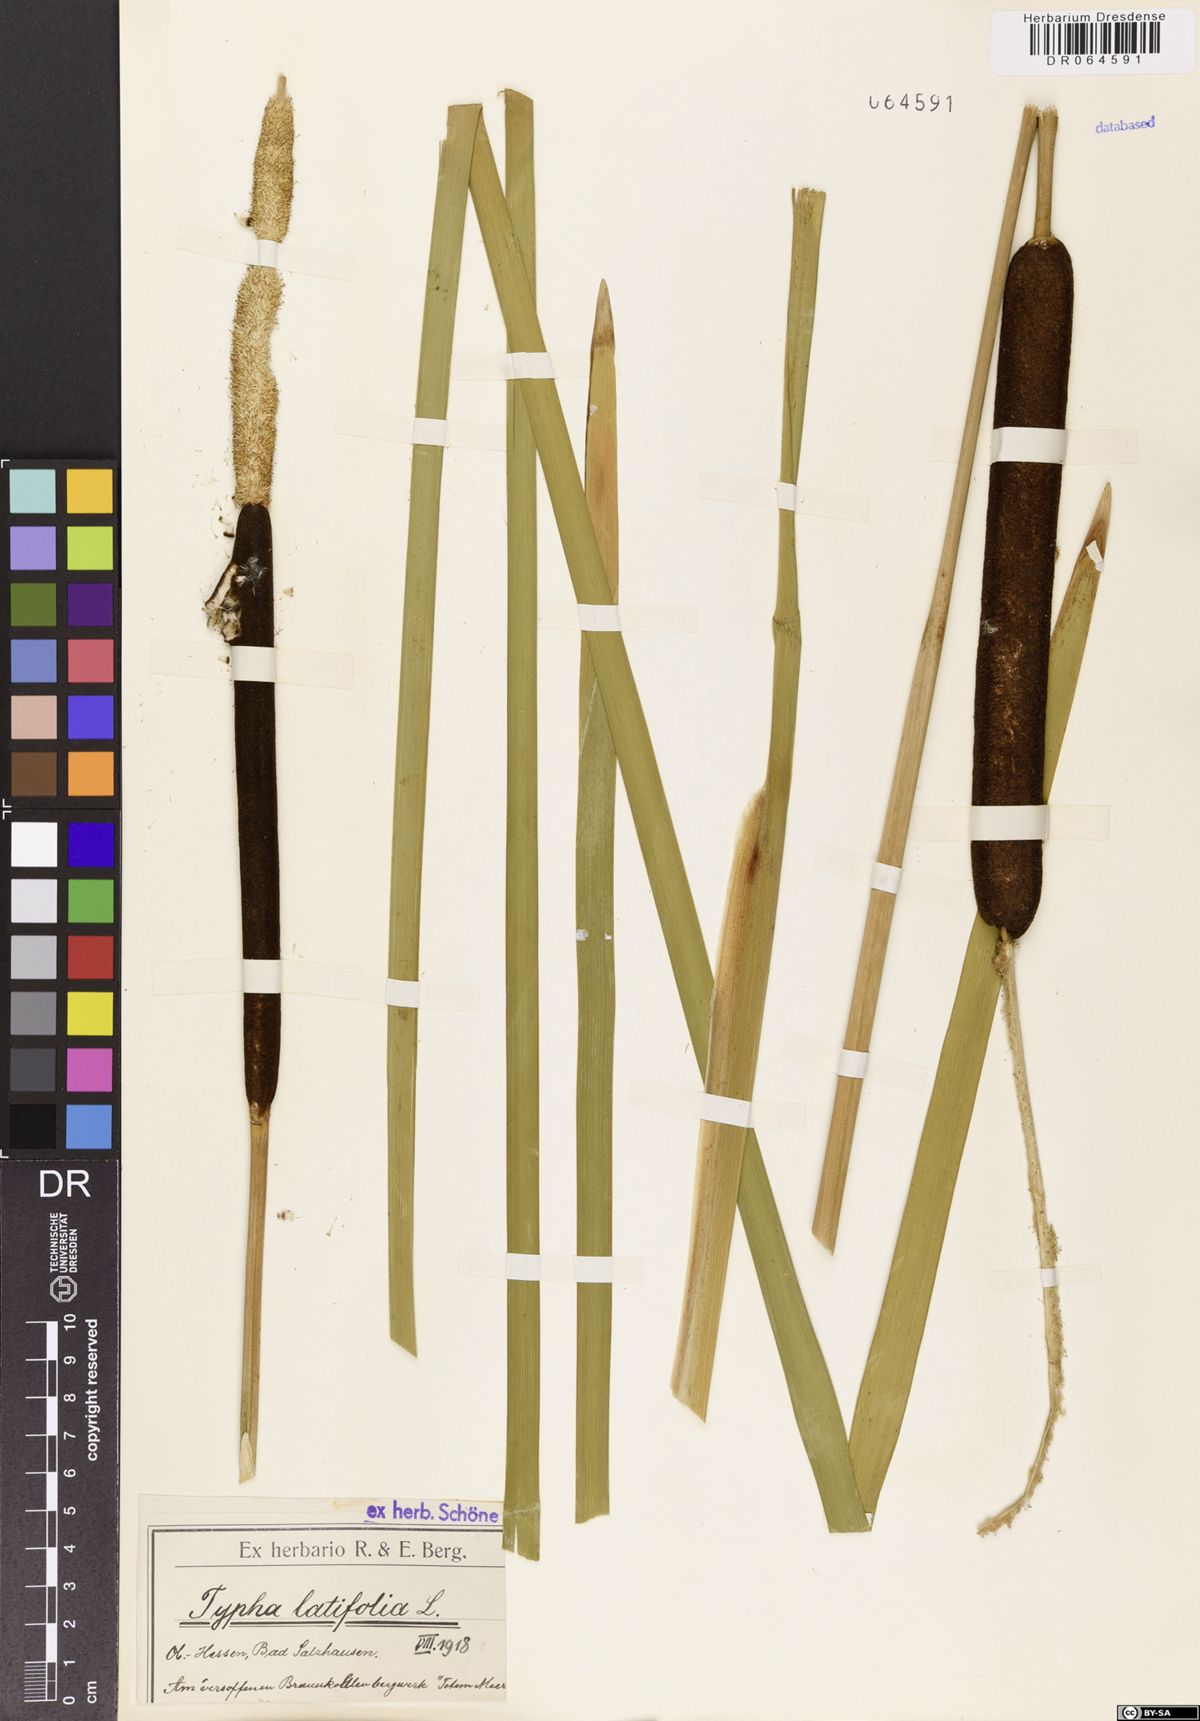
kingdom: Plantae
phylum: Tracheophyta
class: Liliopsida
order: Poales
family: Typhaceae
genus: Typha
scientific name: Typha latifolia
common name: Broadleaf cattail
